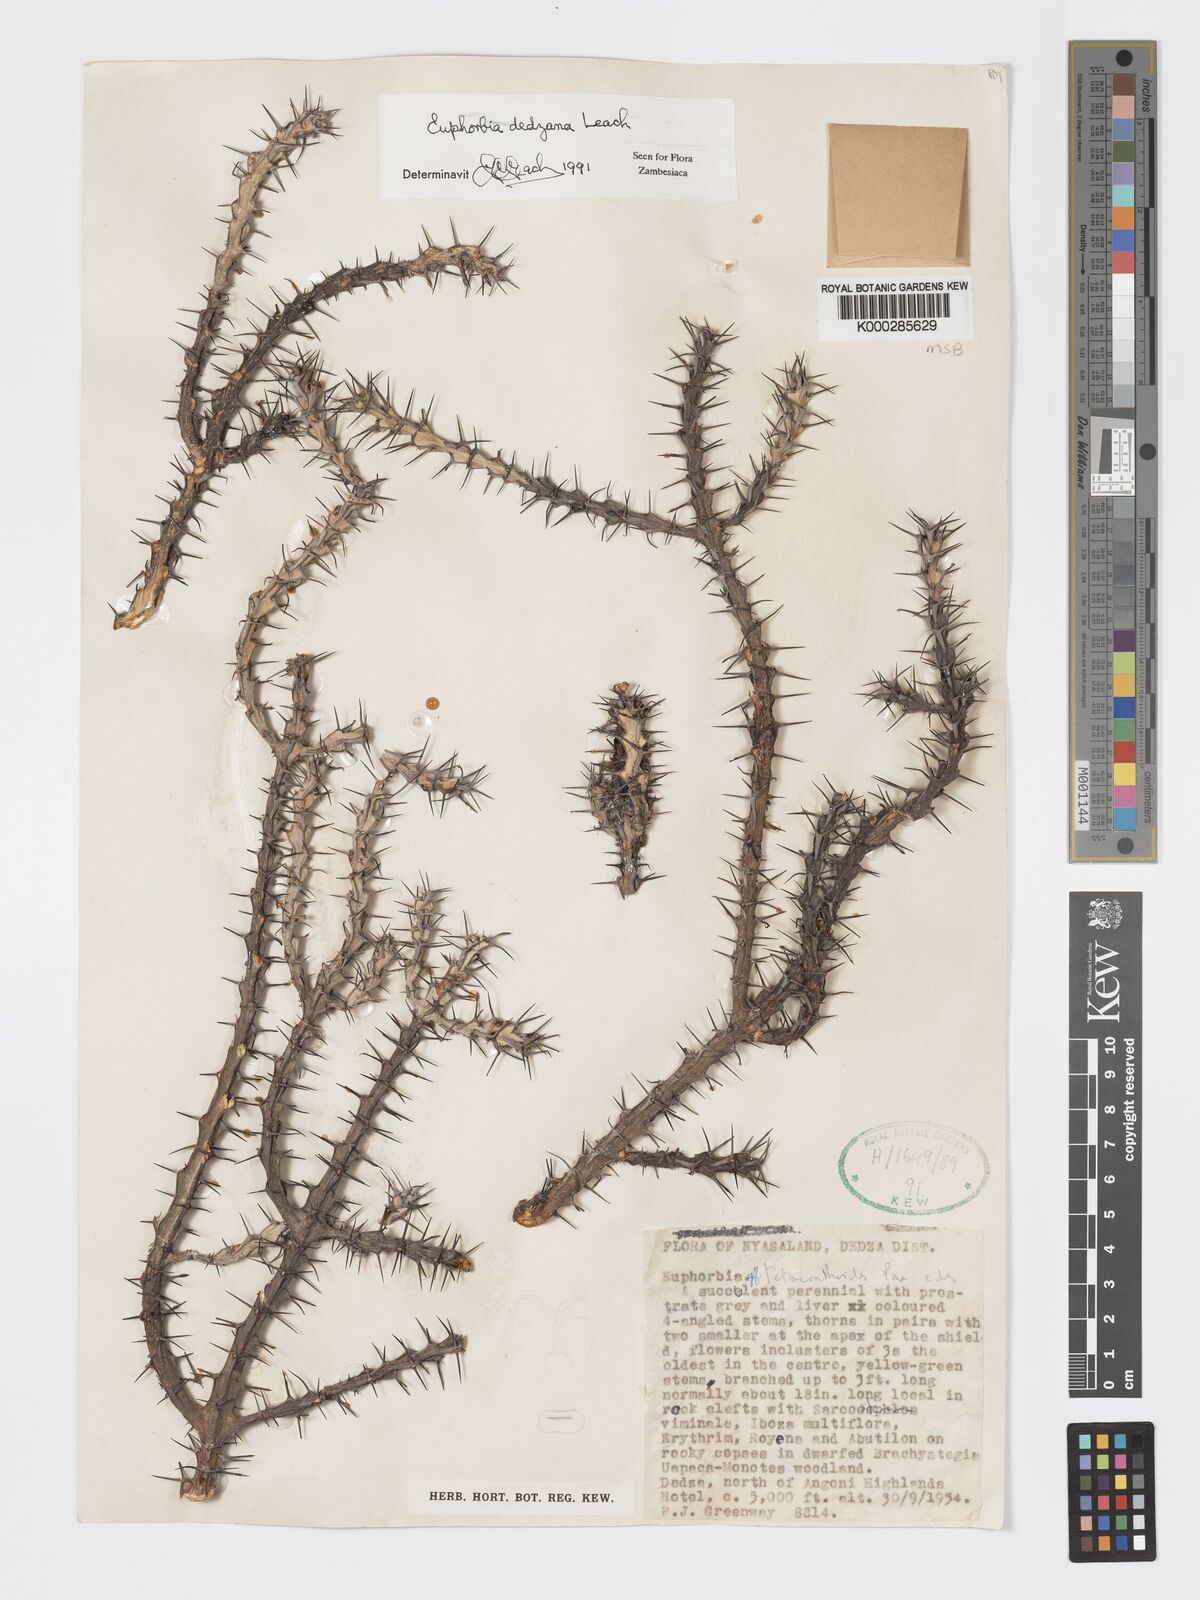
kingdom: Plantae
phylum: Tracheophyta
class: Magnoliopsida
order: Malpighiales
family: Euphorbiaceae
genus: Euphorbia
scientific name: Euphorbia dedzana
